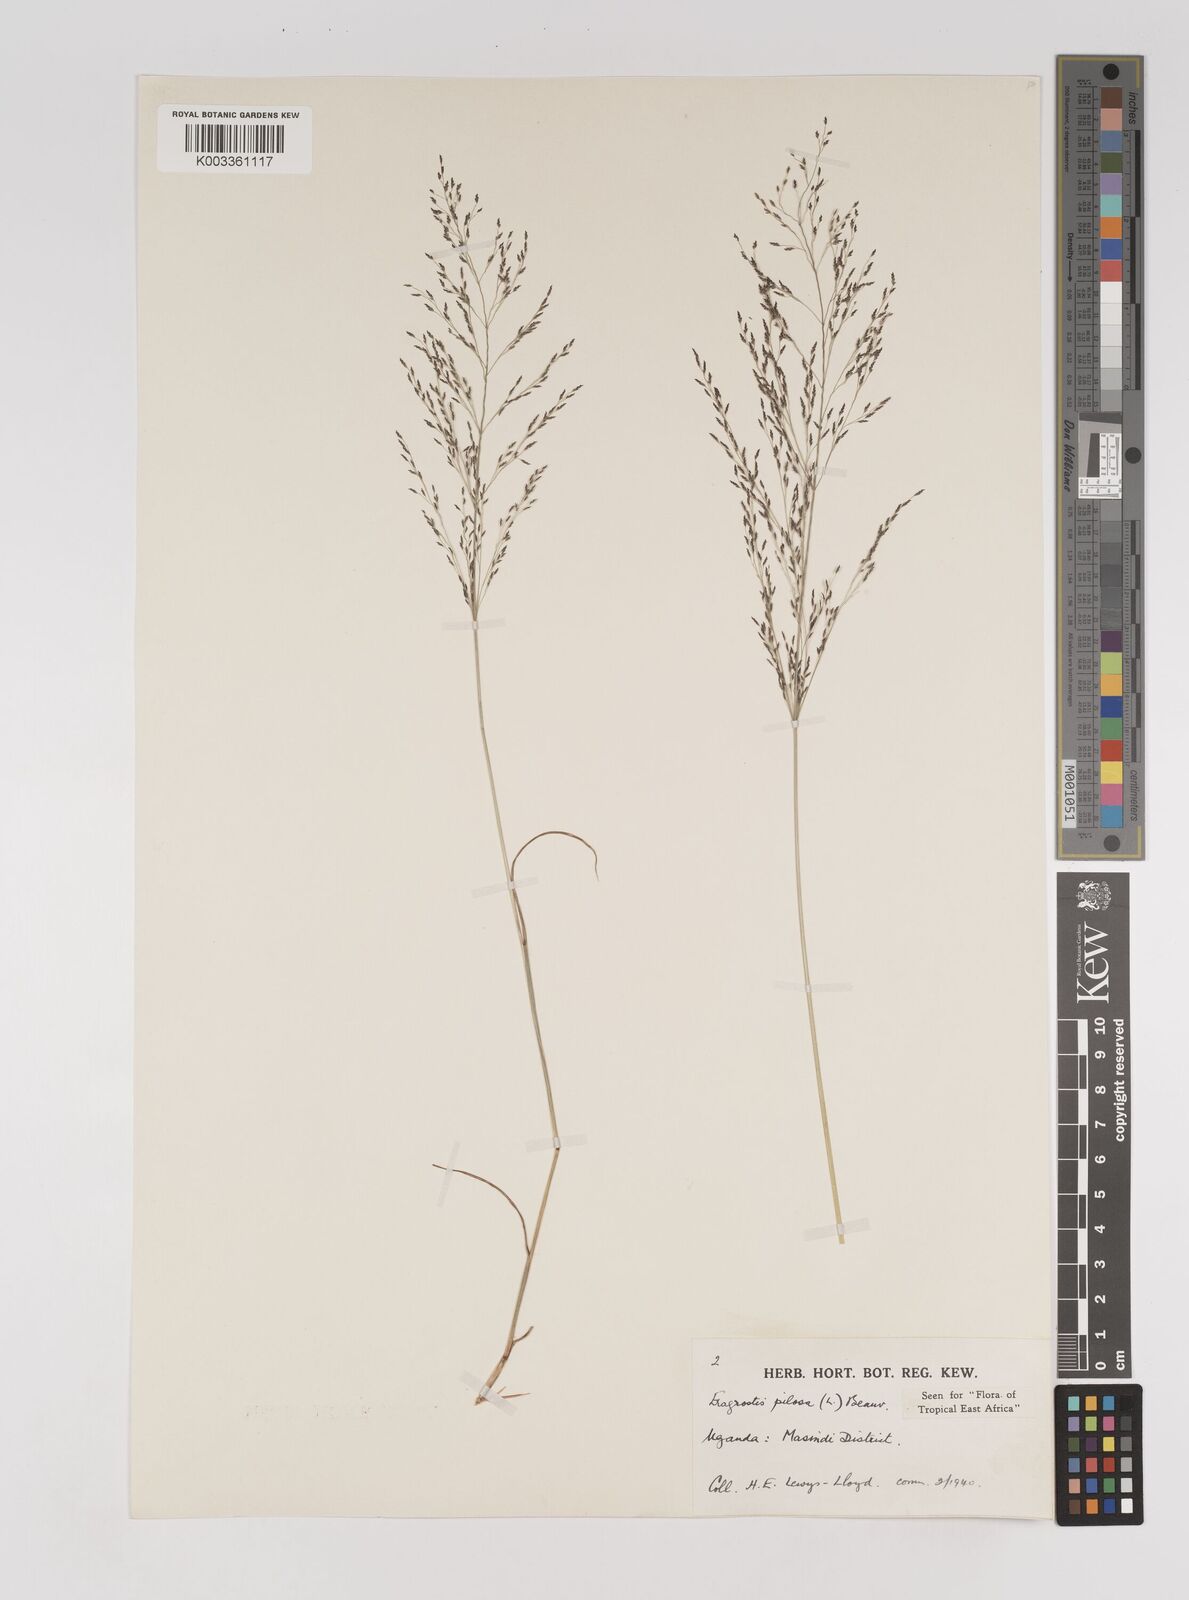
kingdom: Plantae
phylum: Tracheophyta
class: Liliopsida
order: Poales
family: Poaceae
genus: Eragrostis
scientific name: Eragrostis pilosa
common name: Indian lovegrass
